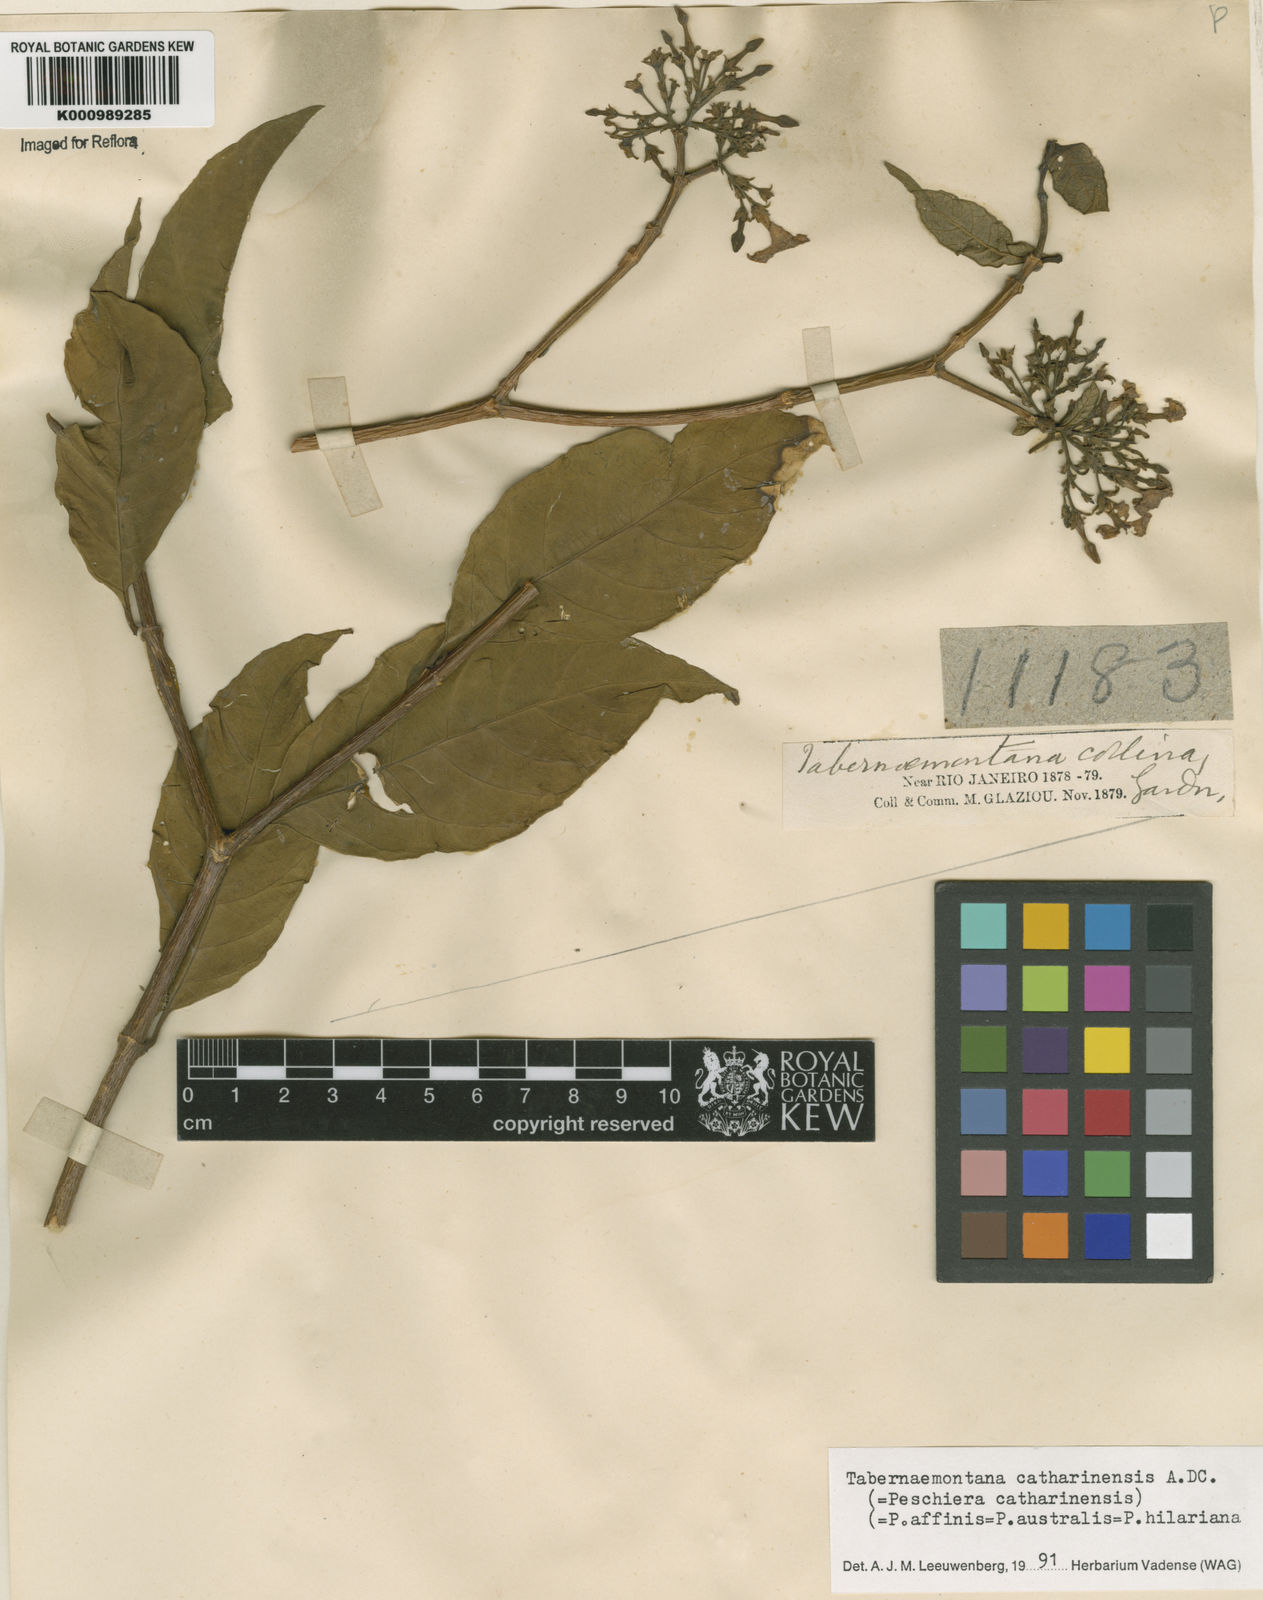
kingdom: Plantae
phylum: Tracheophyta
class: Magnoliopsida
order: Gentianales
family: Apocynaceae
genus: Tabernaemontana
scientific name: Tabernaemontana catharinensis
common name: Pinwheel-flower
